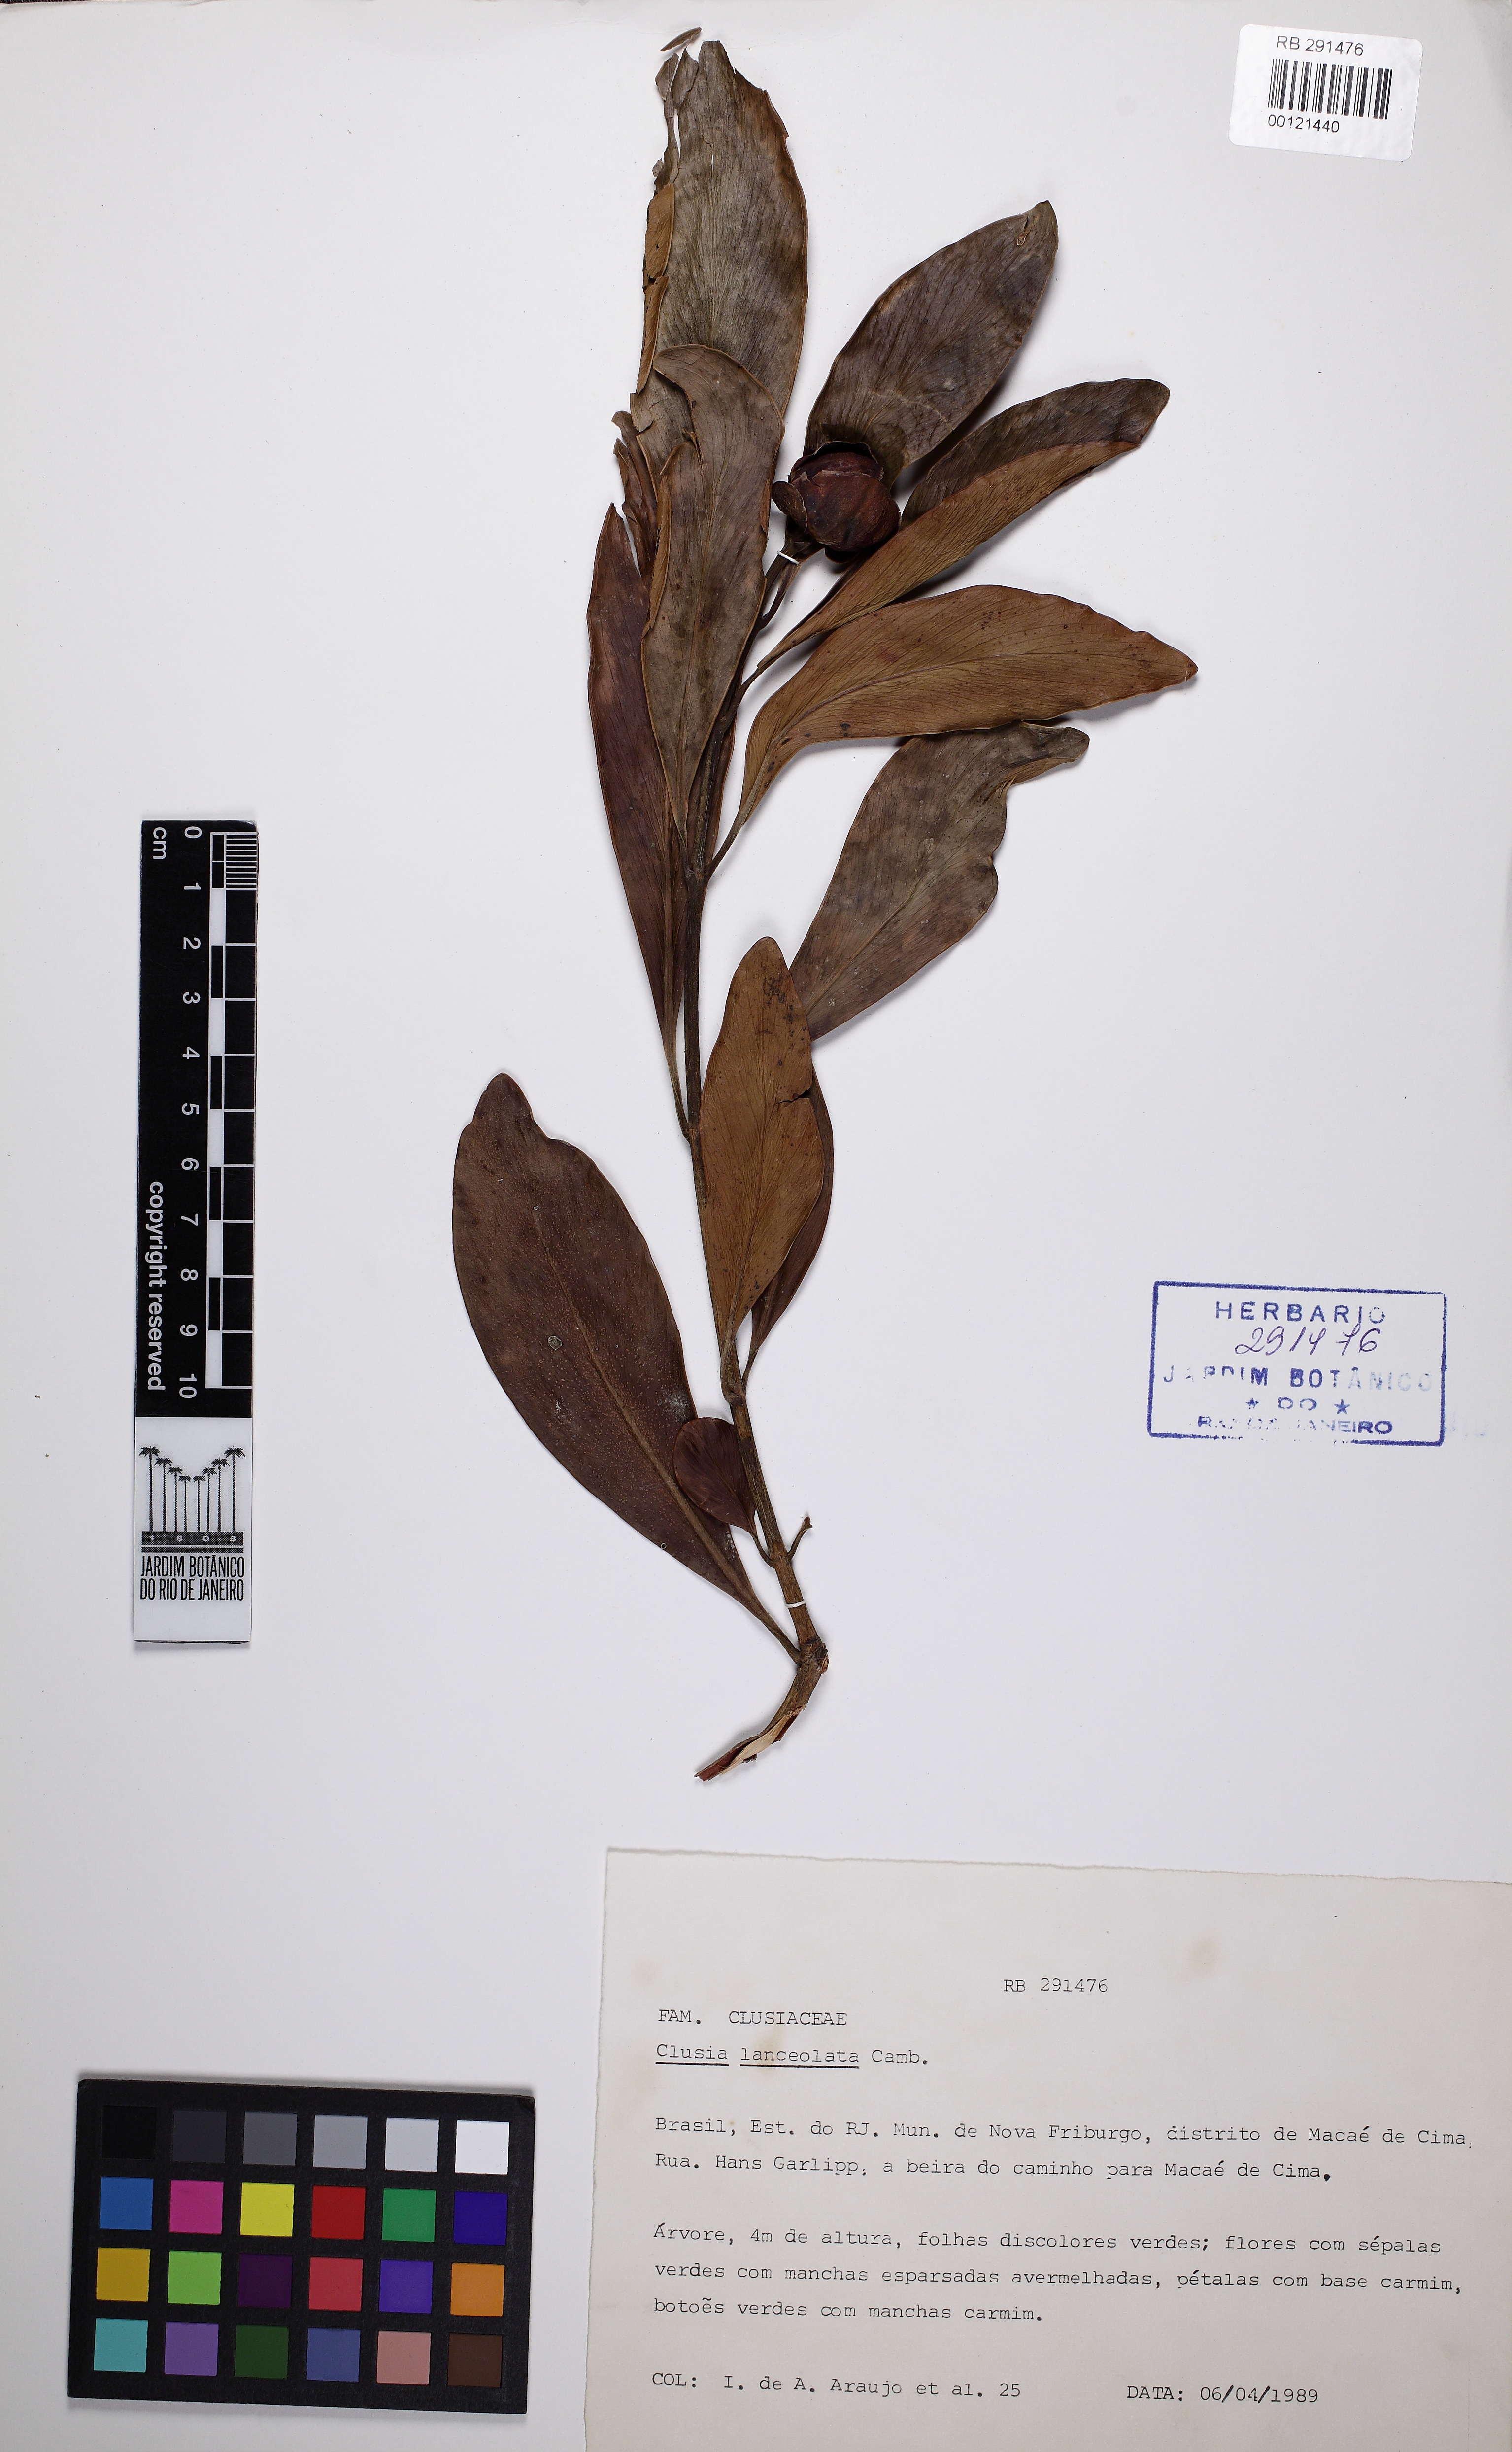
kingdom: Plantae
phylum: Tracheophyta
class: Magnoliopsida
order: Malpighiales
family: Clusiaceae
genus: Clusia
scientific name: Clusia lanceolata
